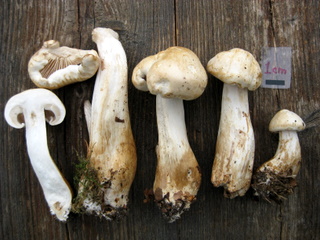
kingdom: Fungi
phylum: Basidiomycota
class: Agaricomycetes
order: Agaricales
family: Tricholomataceae
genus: Tricholoma
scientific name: Tricholoma stiparophyllum
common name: hvid ridderhat
